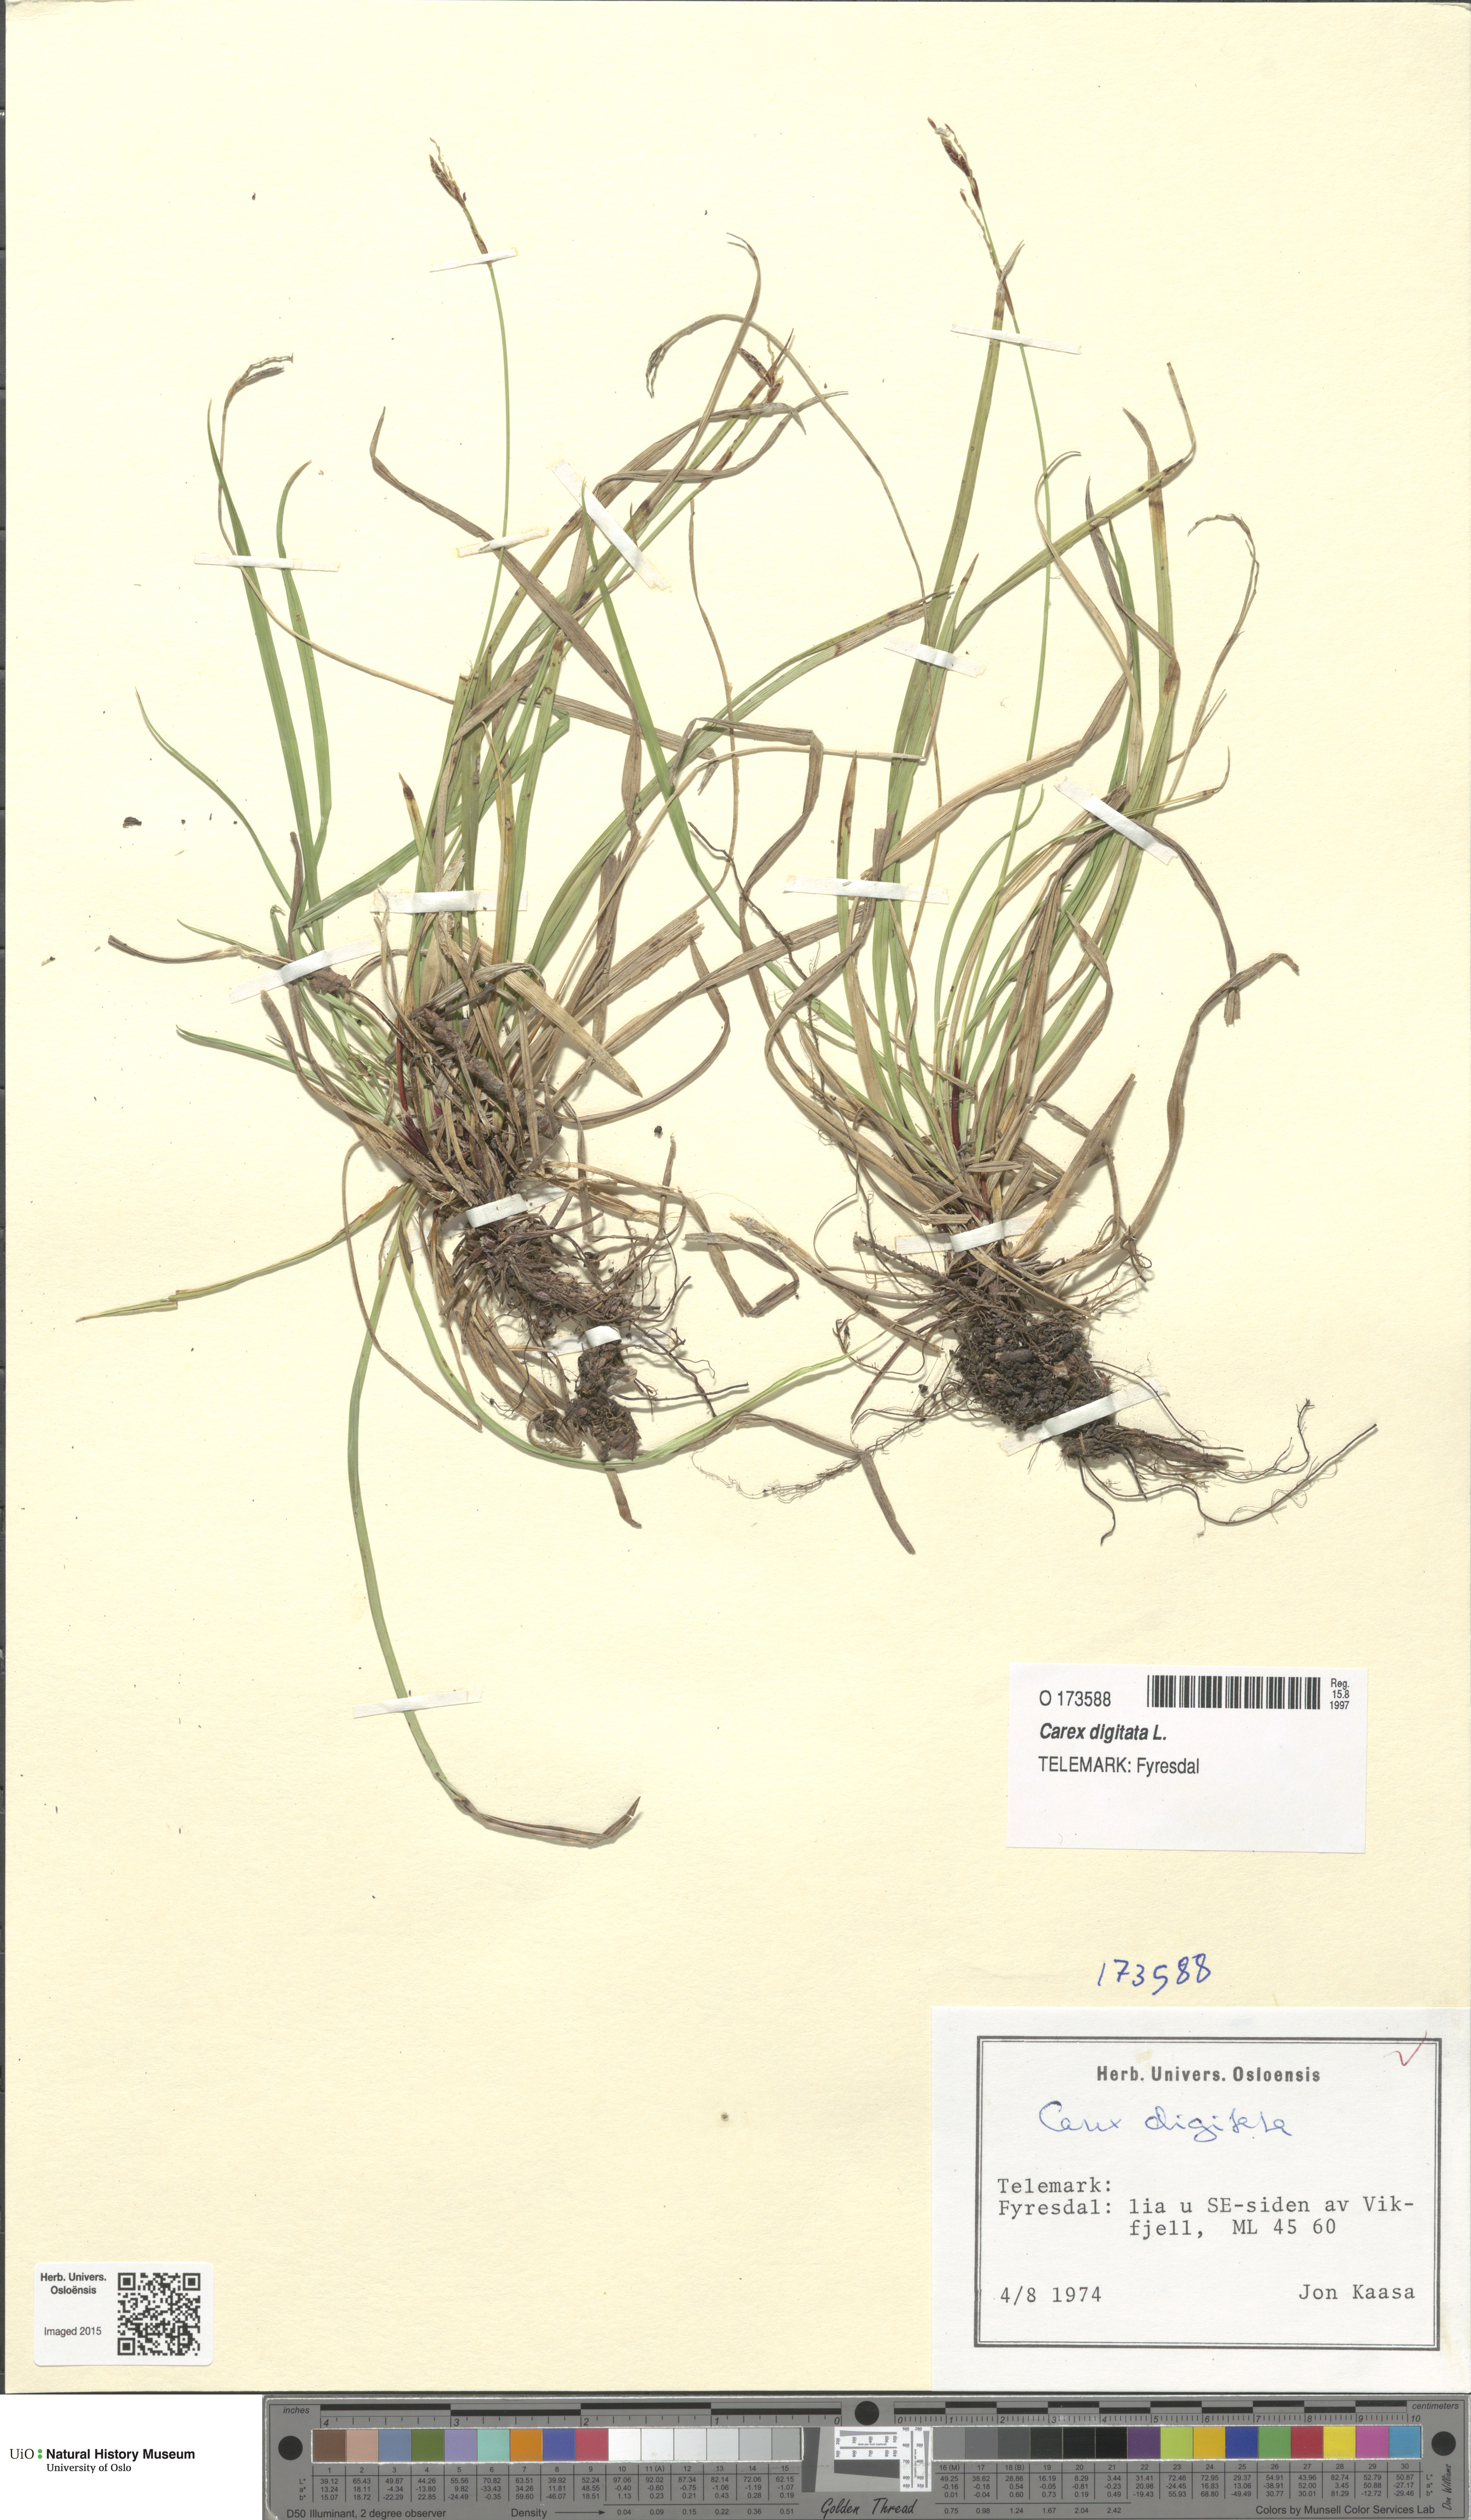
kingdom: Plantae
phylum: Tracheophyta
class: Liliopsida
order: Poales
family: Cyperaceae
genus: Carex
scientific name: Carex digitata
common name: Fingered sedge
